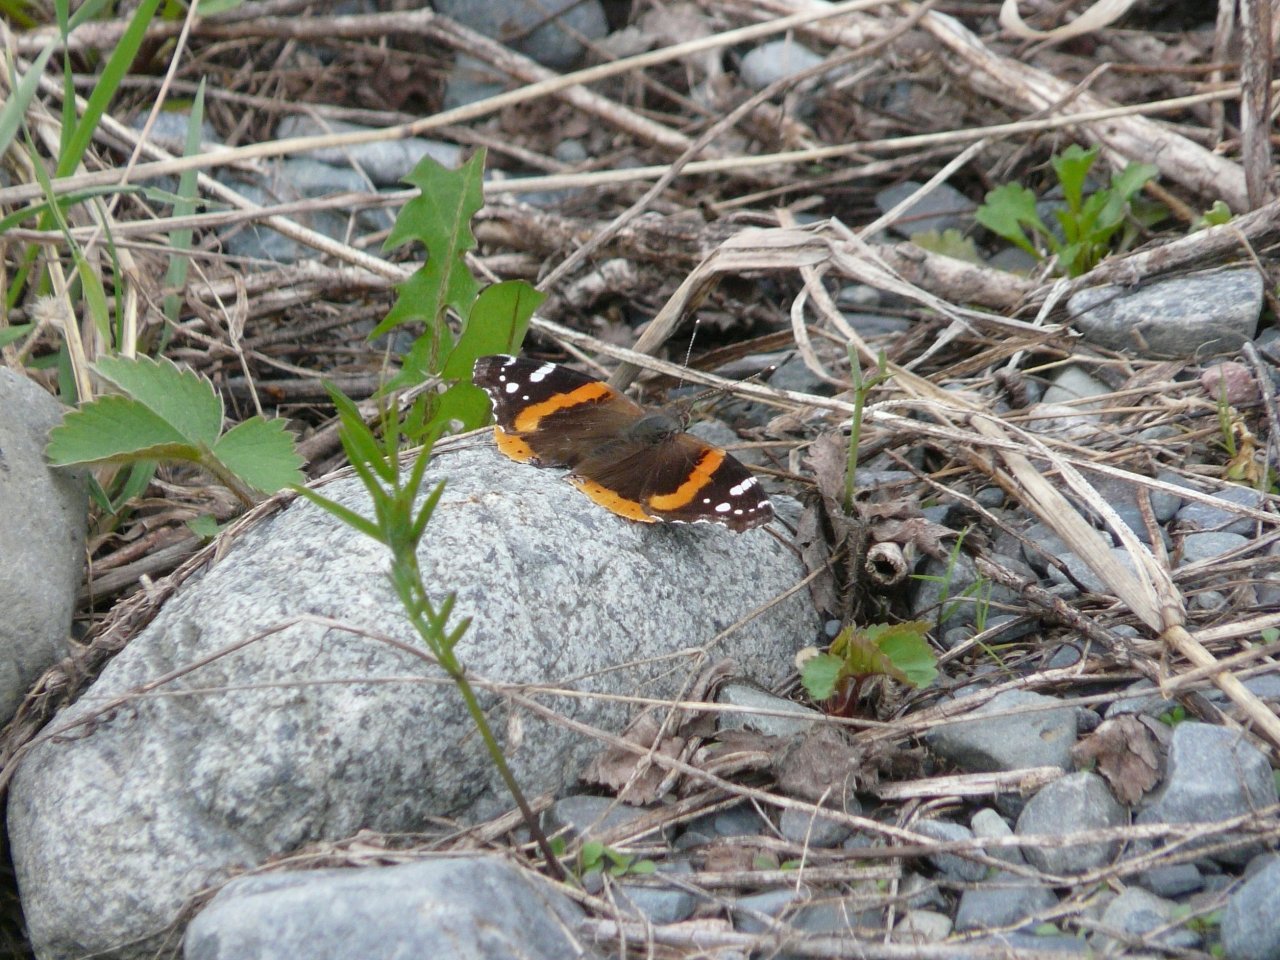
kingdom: Animalia
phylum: Arthropoda
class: Insecta
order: Lepidoptera
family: Nymphalidae
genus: Vanessa
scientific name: Vanessa atalanta
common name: Red Admiral
